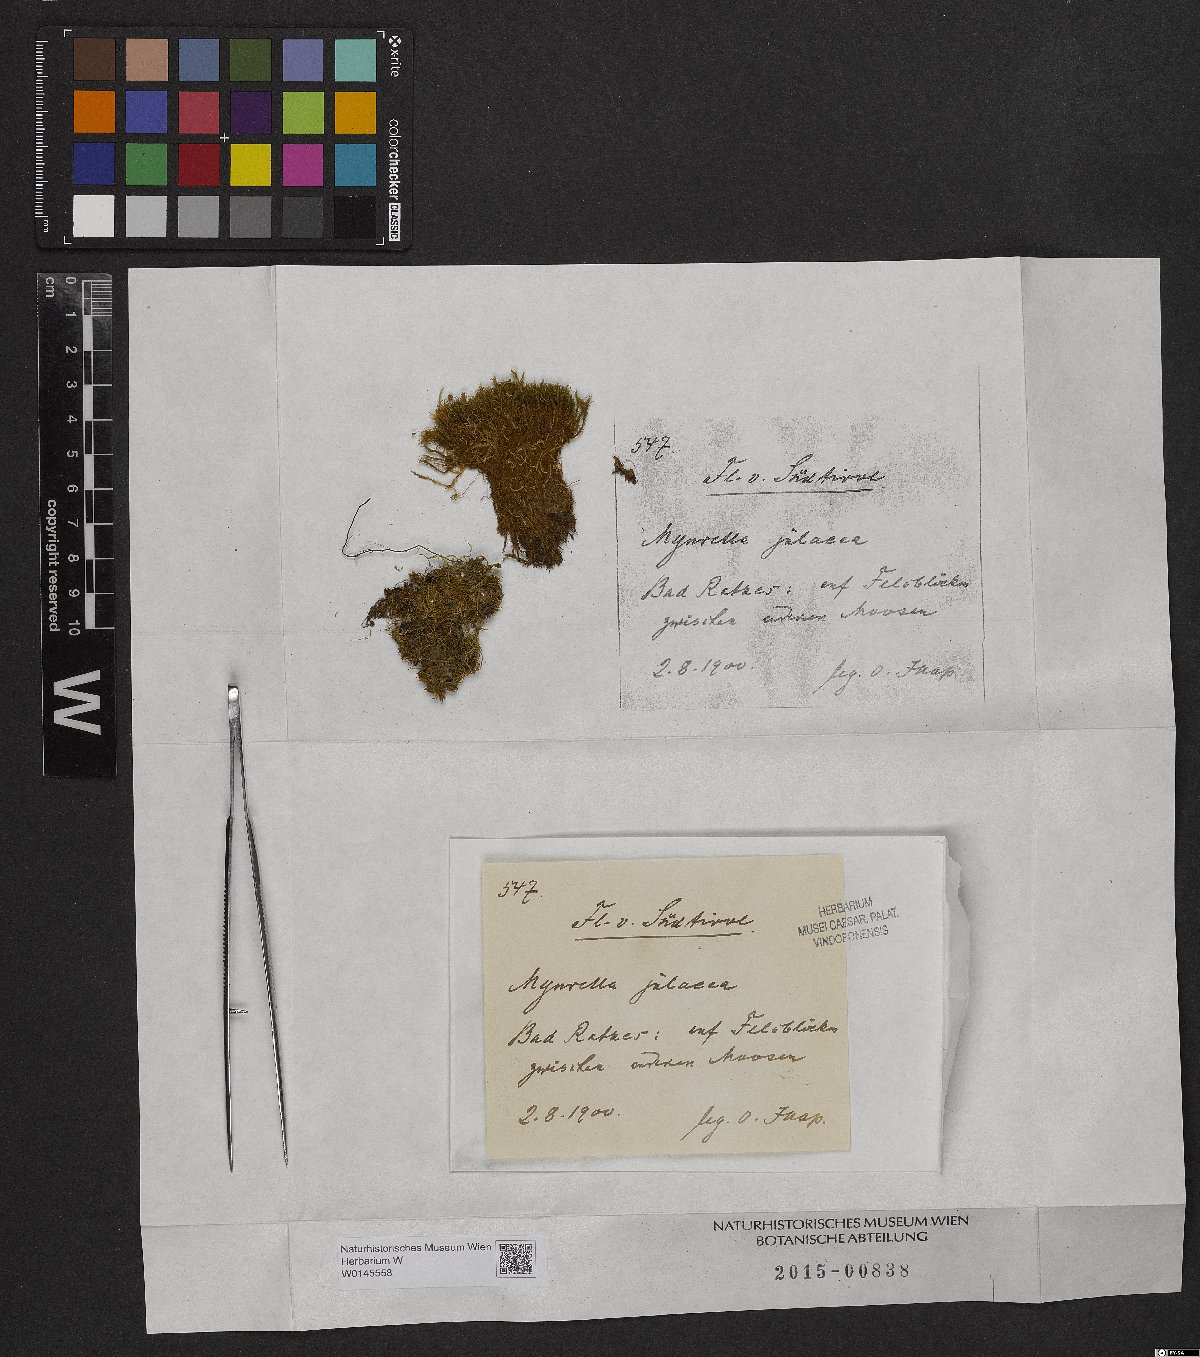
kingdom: Plantae
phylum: Bryophyta
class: Bryopsida
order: Hypnales
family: Plagiotheciaceae
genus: Myurella
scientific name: Myurella julacea
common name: Small mousetail moss
